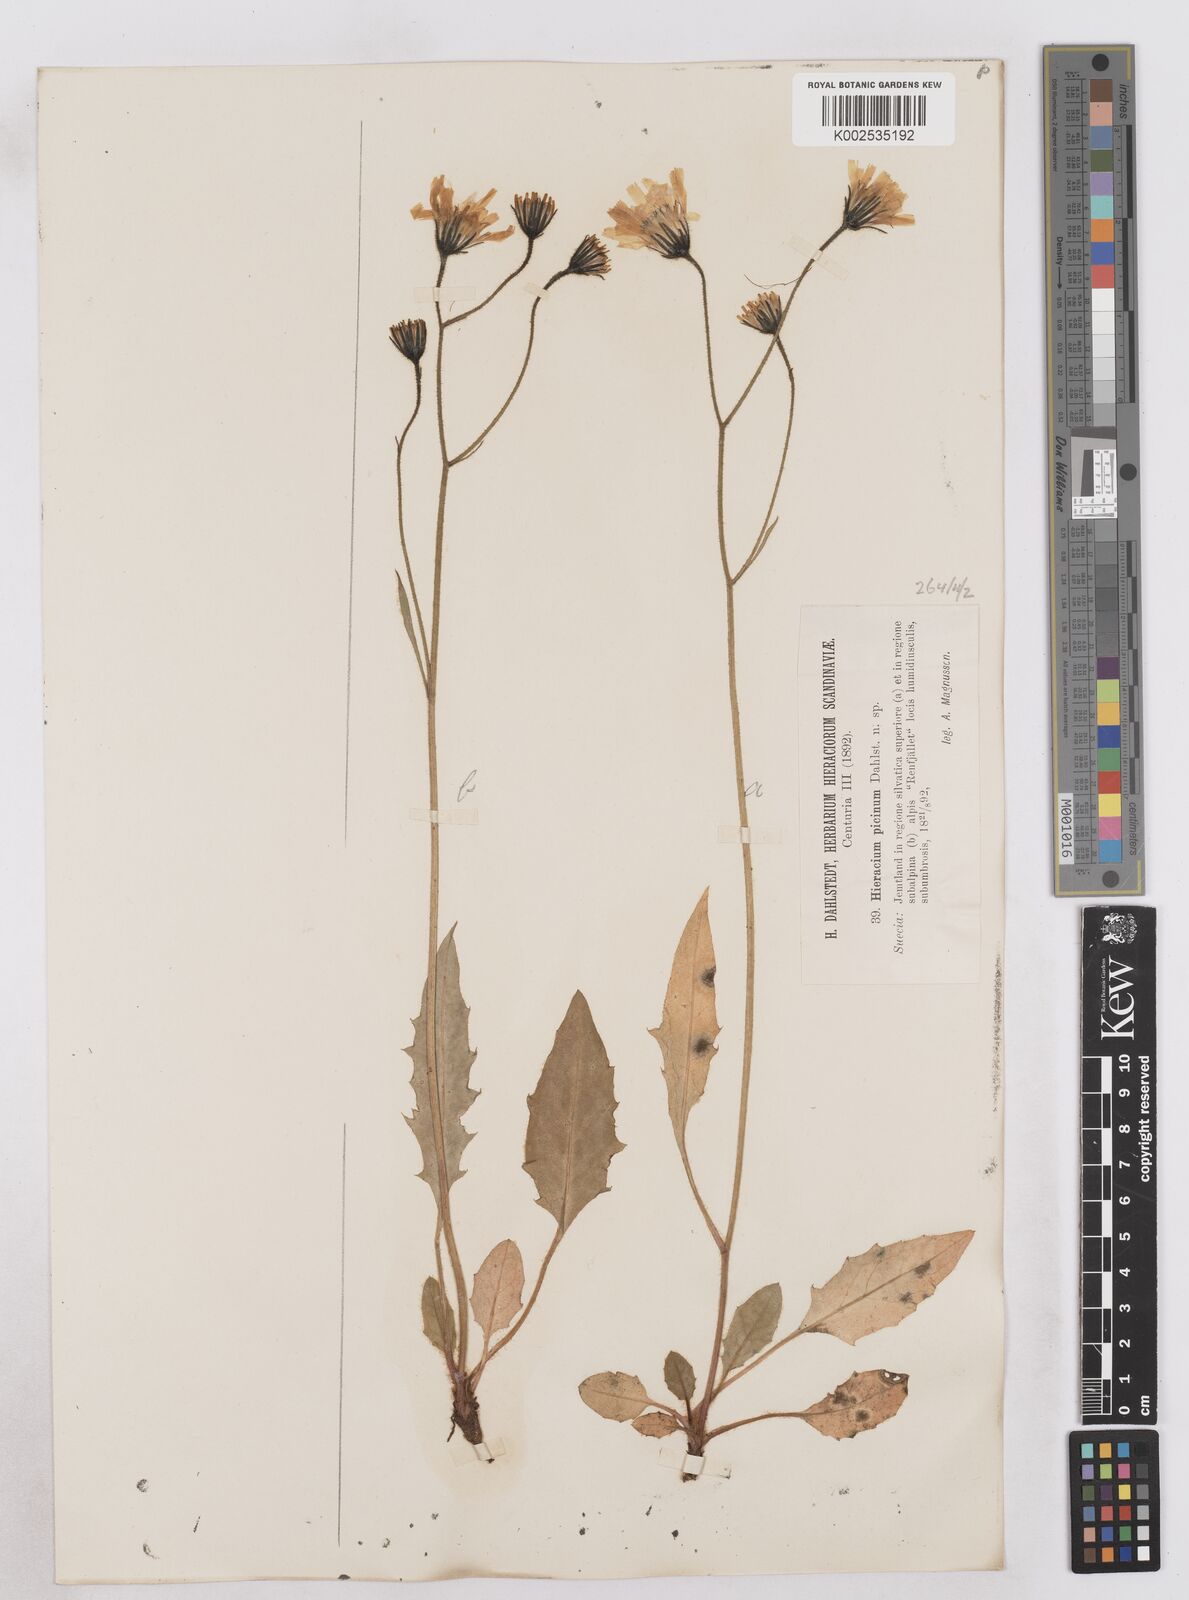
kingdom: Plantae
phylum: Tracheophyta
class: Magnoliopsida
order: Asterales
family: Asteraceae
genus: Hieracium
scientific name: Hieracium
